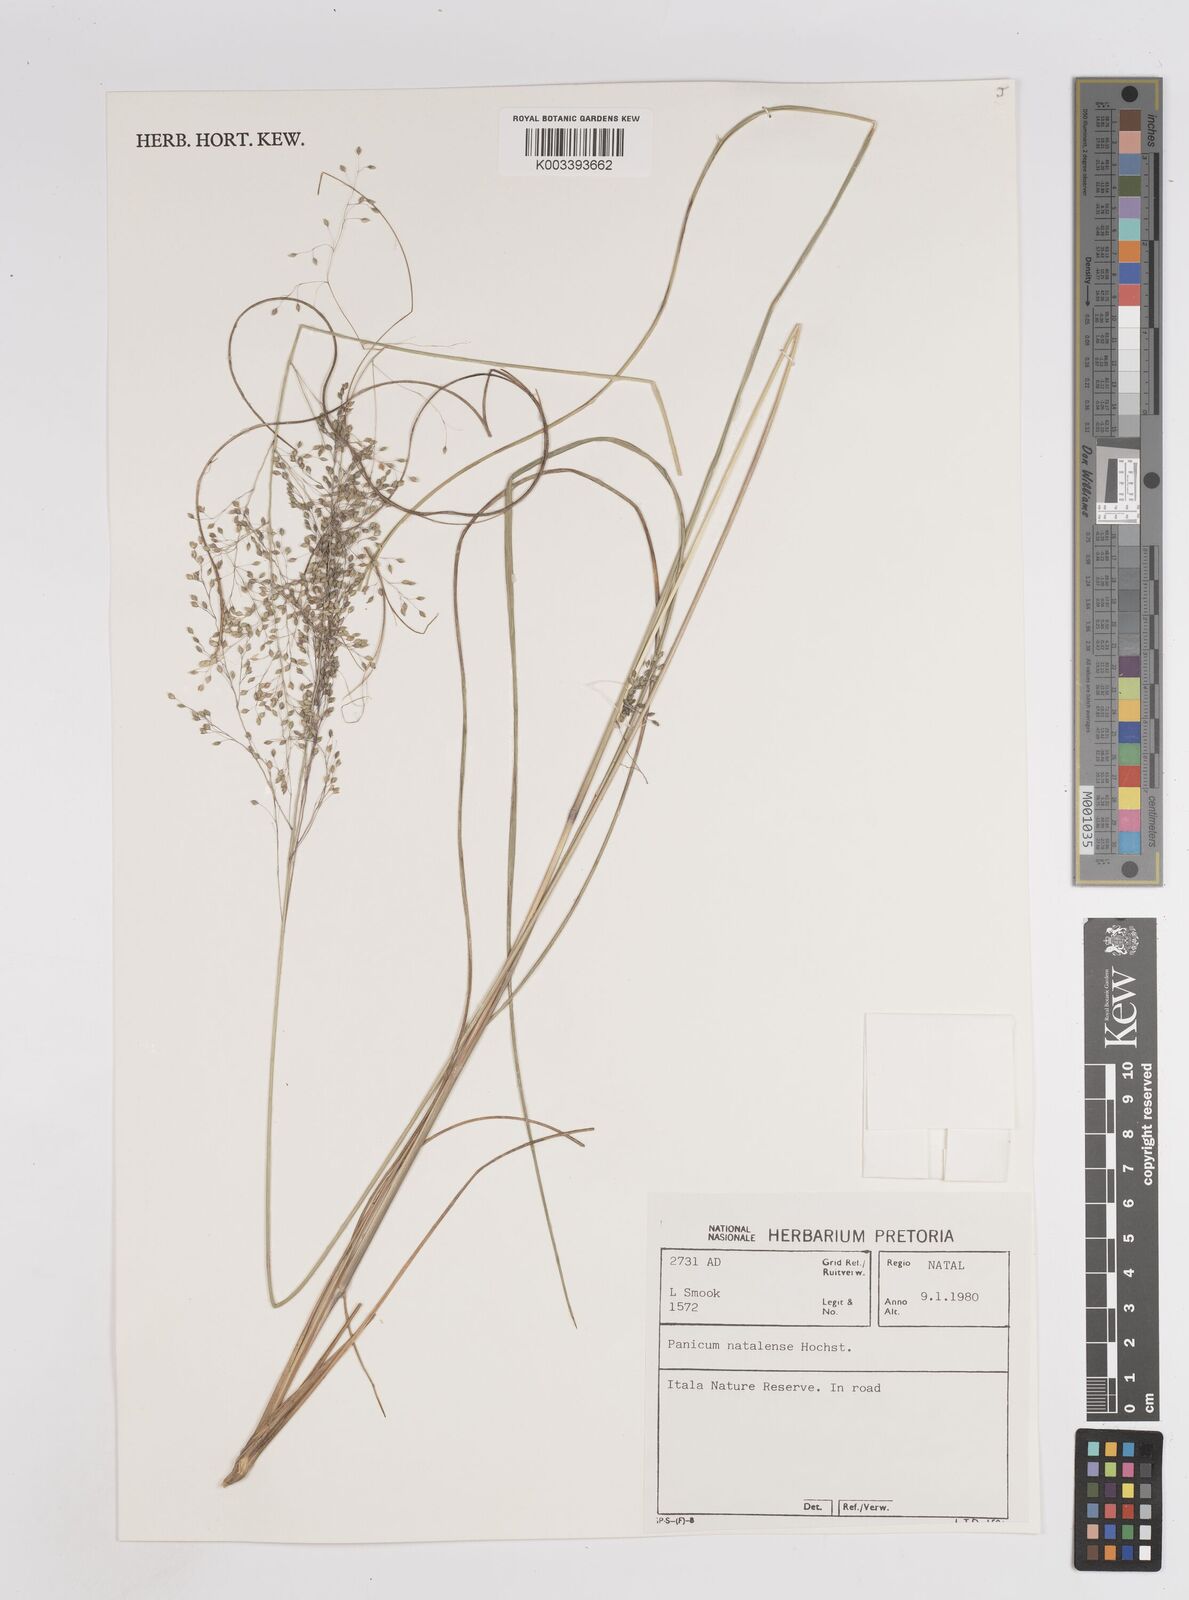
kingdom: Plantae
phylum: Tracheophyta
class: Liliopsida
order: Poales
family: Poaceae
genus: Trichanthecium
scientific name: Trichanthecium natalense
